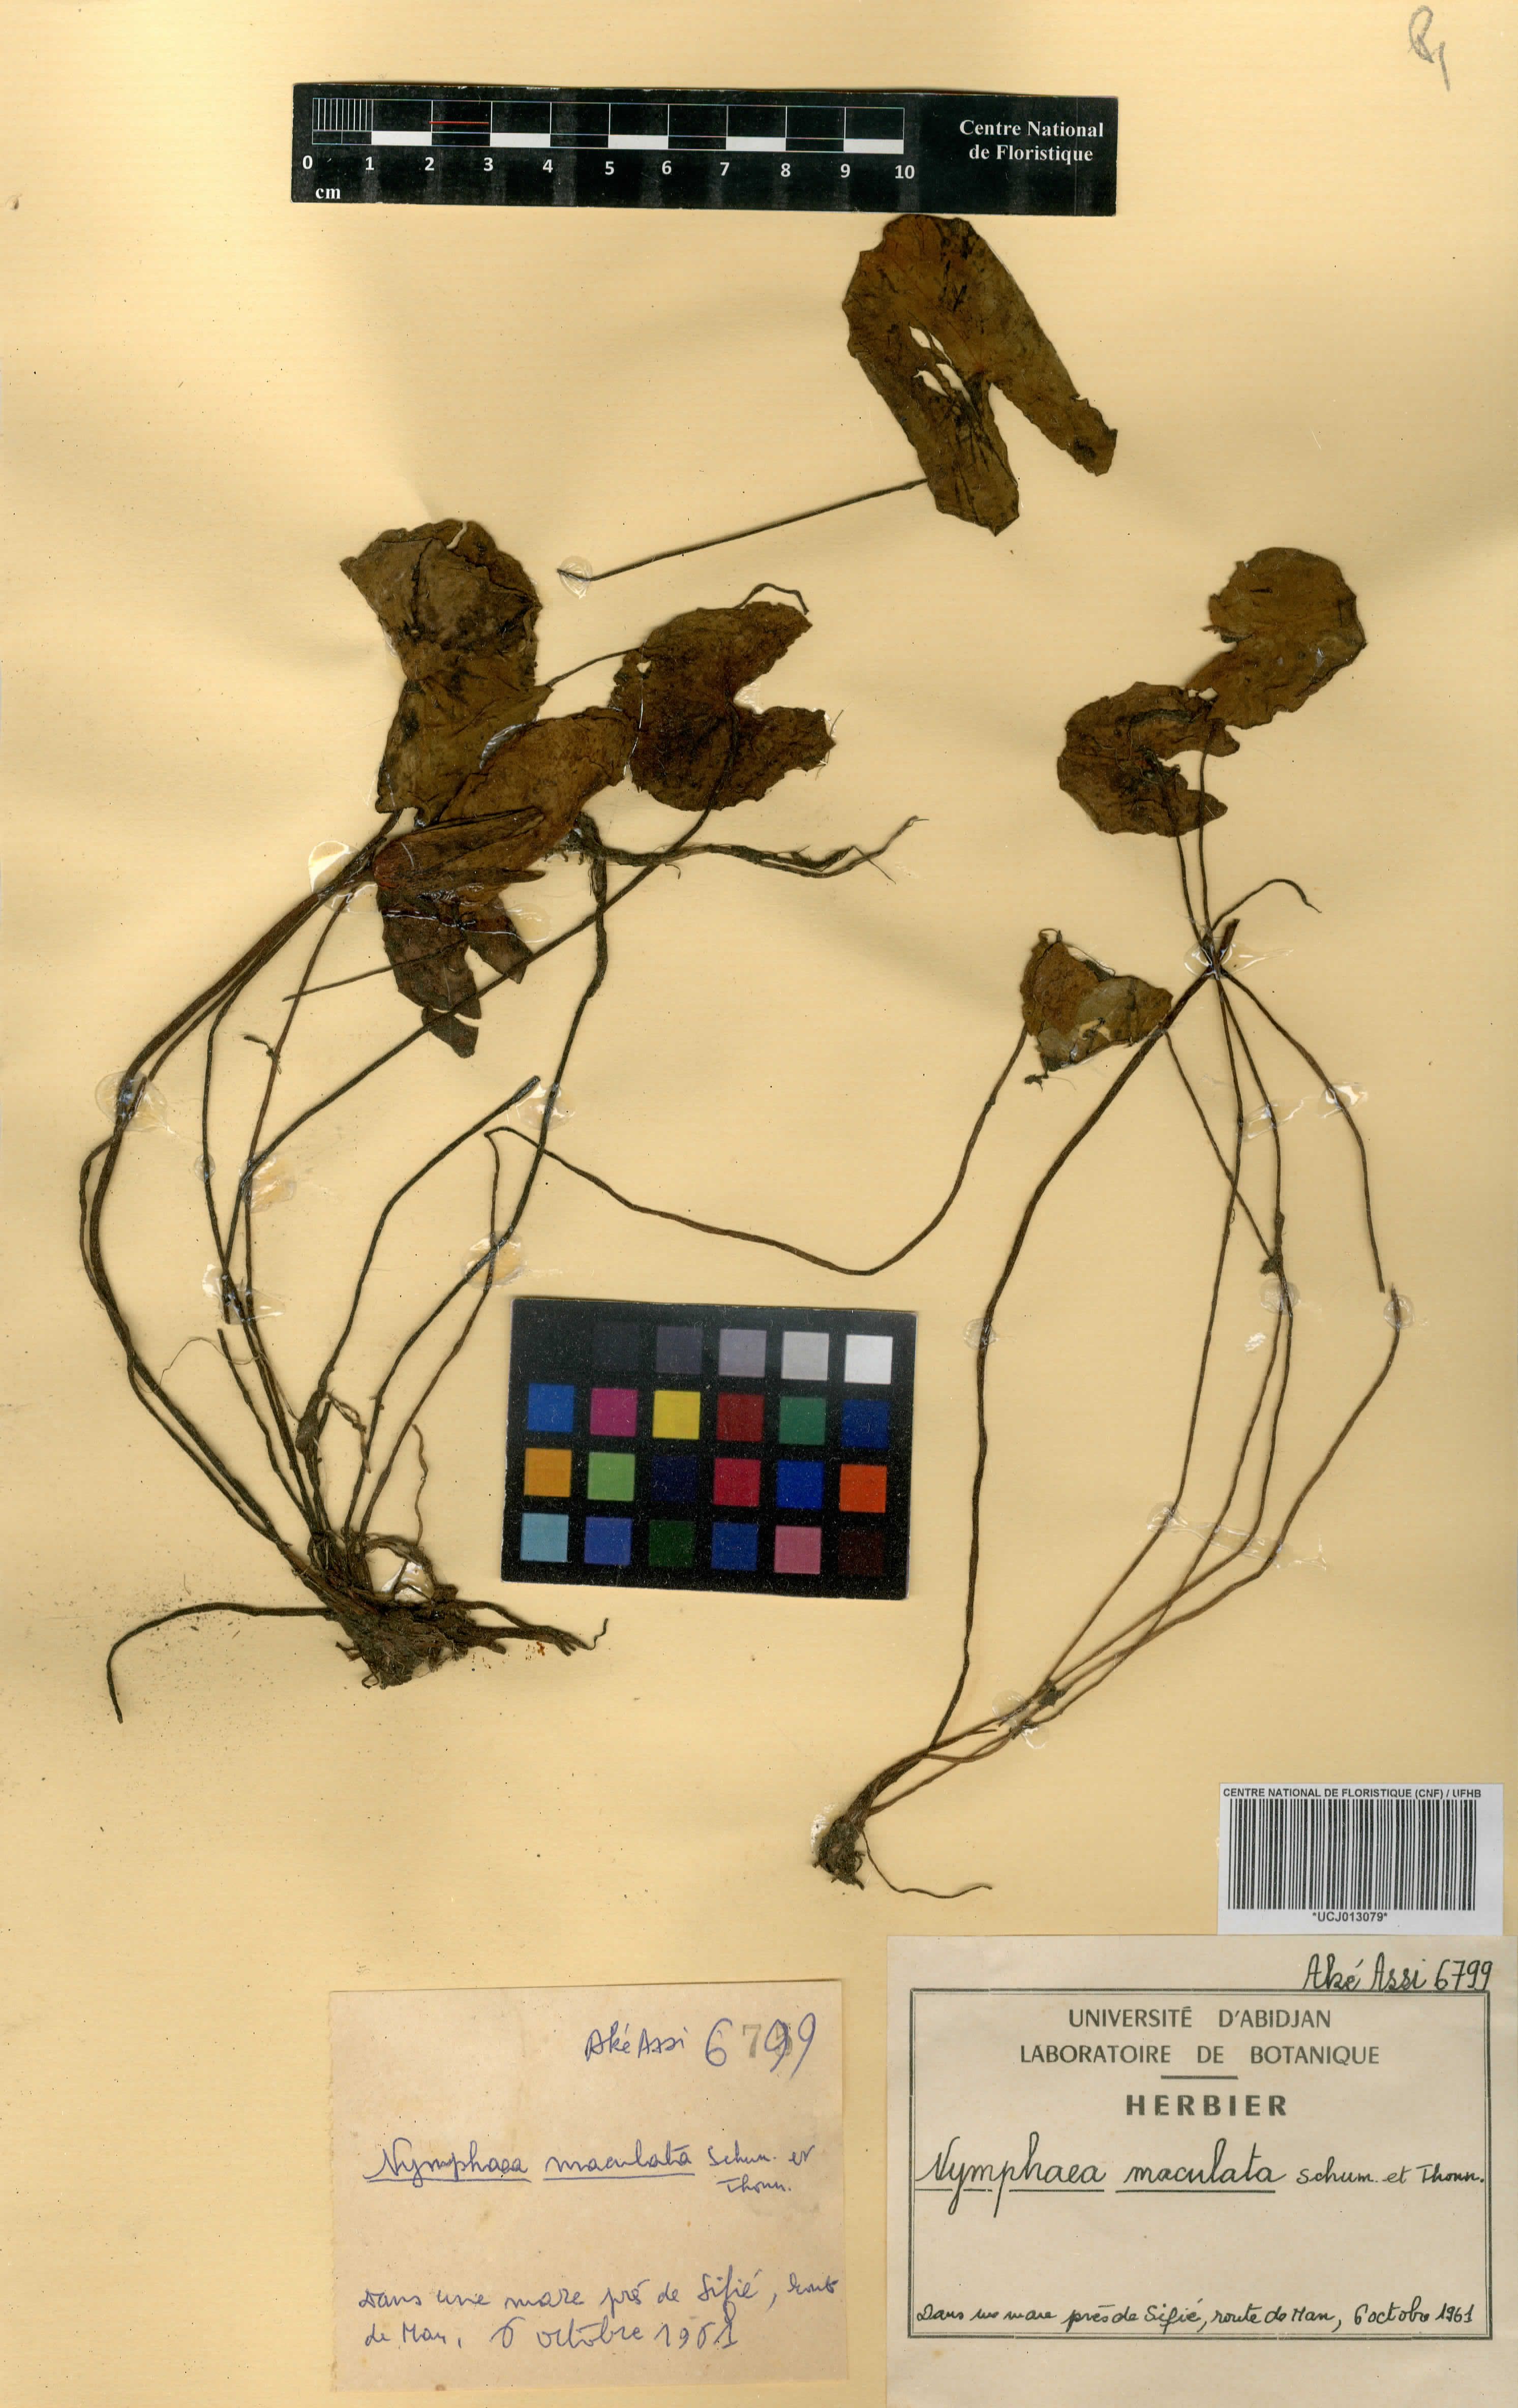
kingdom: Plantae
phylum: Tracheophyta
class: Magnoliopsida
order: Nymphaeales
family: Nymphaeaceae
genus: Nymphaea
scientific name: Nymphaea maculata
